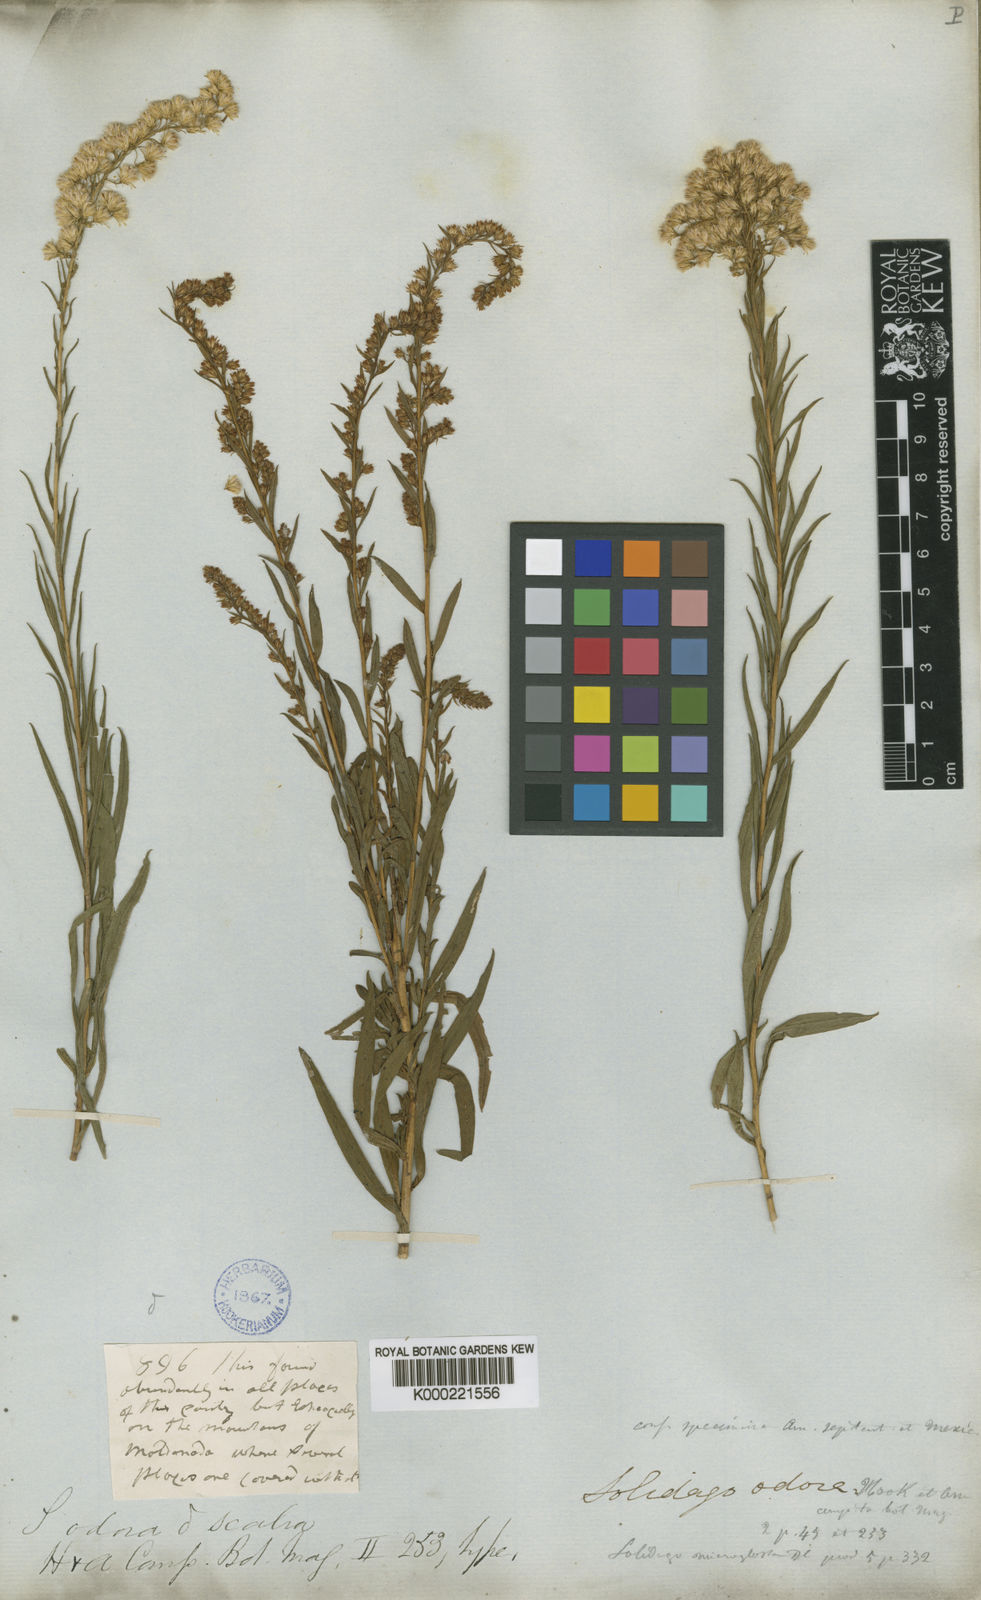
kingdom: Plantae
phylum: Tracheophyta
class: Magnoliopsida
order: Asterales
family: Asteraceae
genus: Solidago
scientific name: Solidago chilensis
